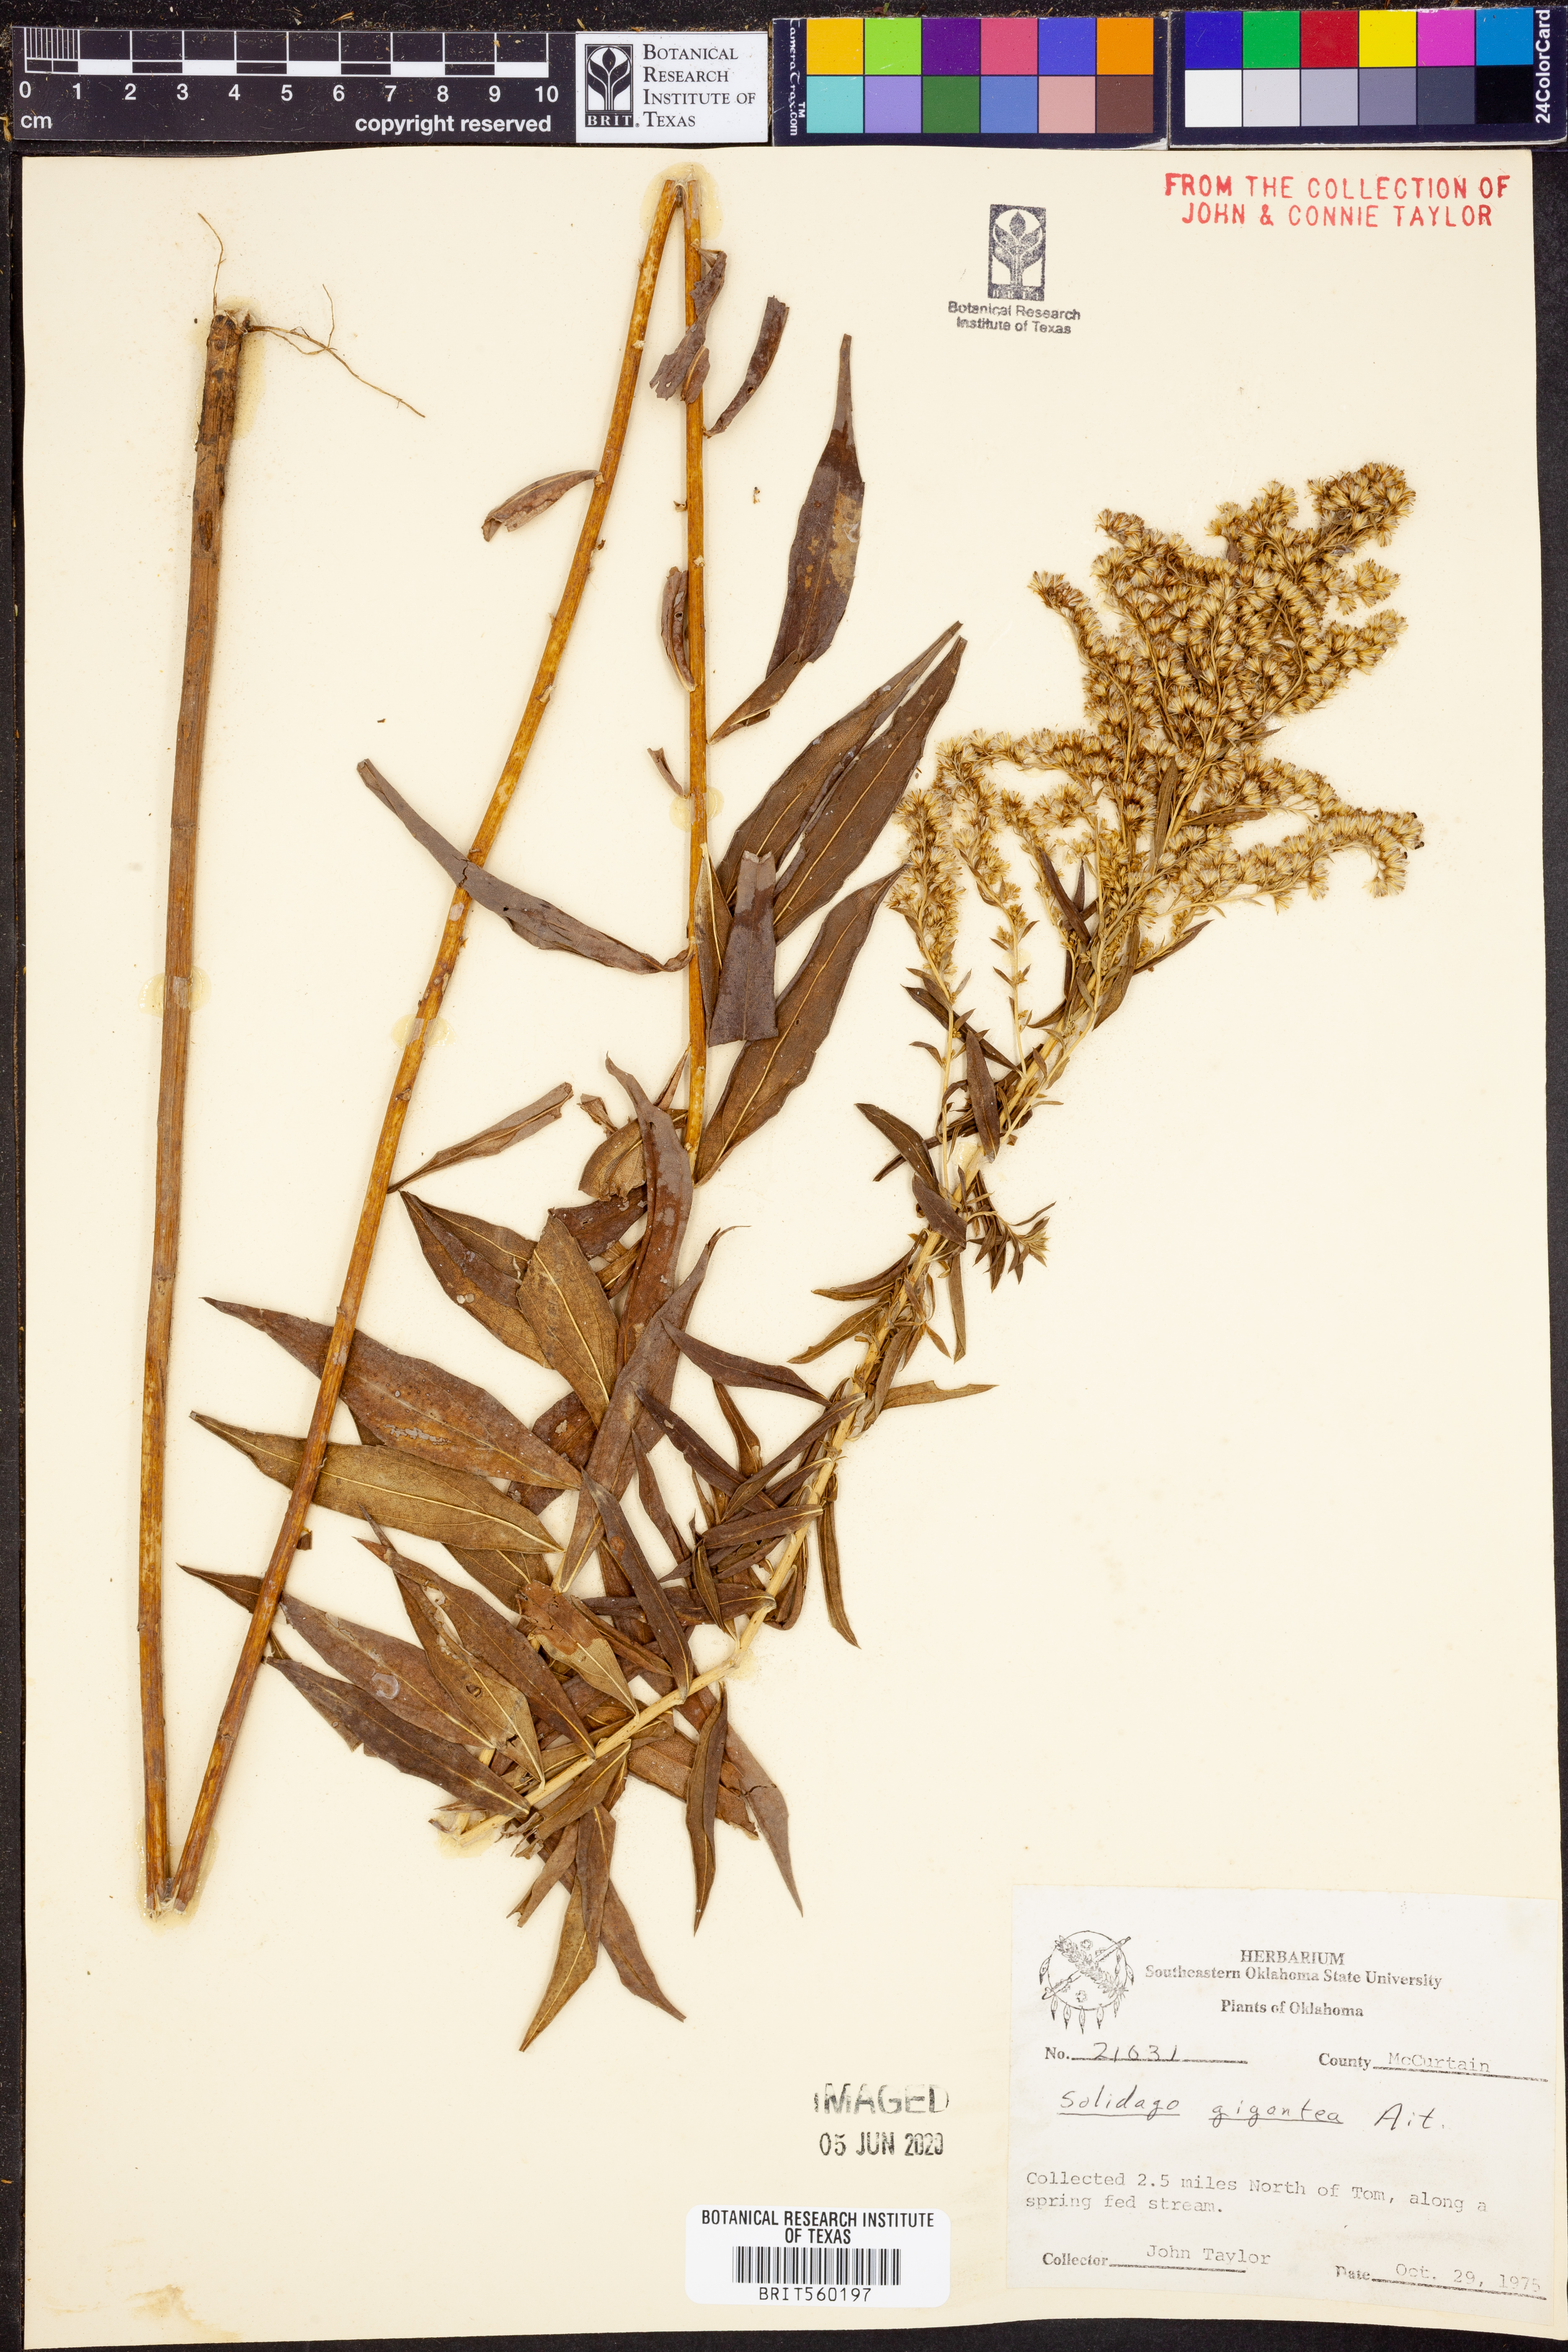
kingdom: Plantae
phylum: Tracheophyta
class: Magnoliopsida
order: Asterales
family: Asteraceae
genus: Solidago
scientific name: Solidago gigantea
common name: Giant goldenrod
